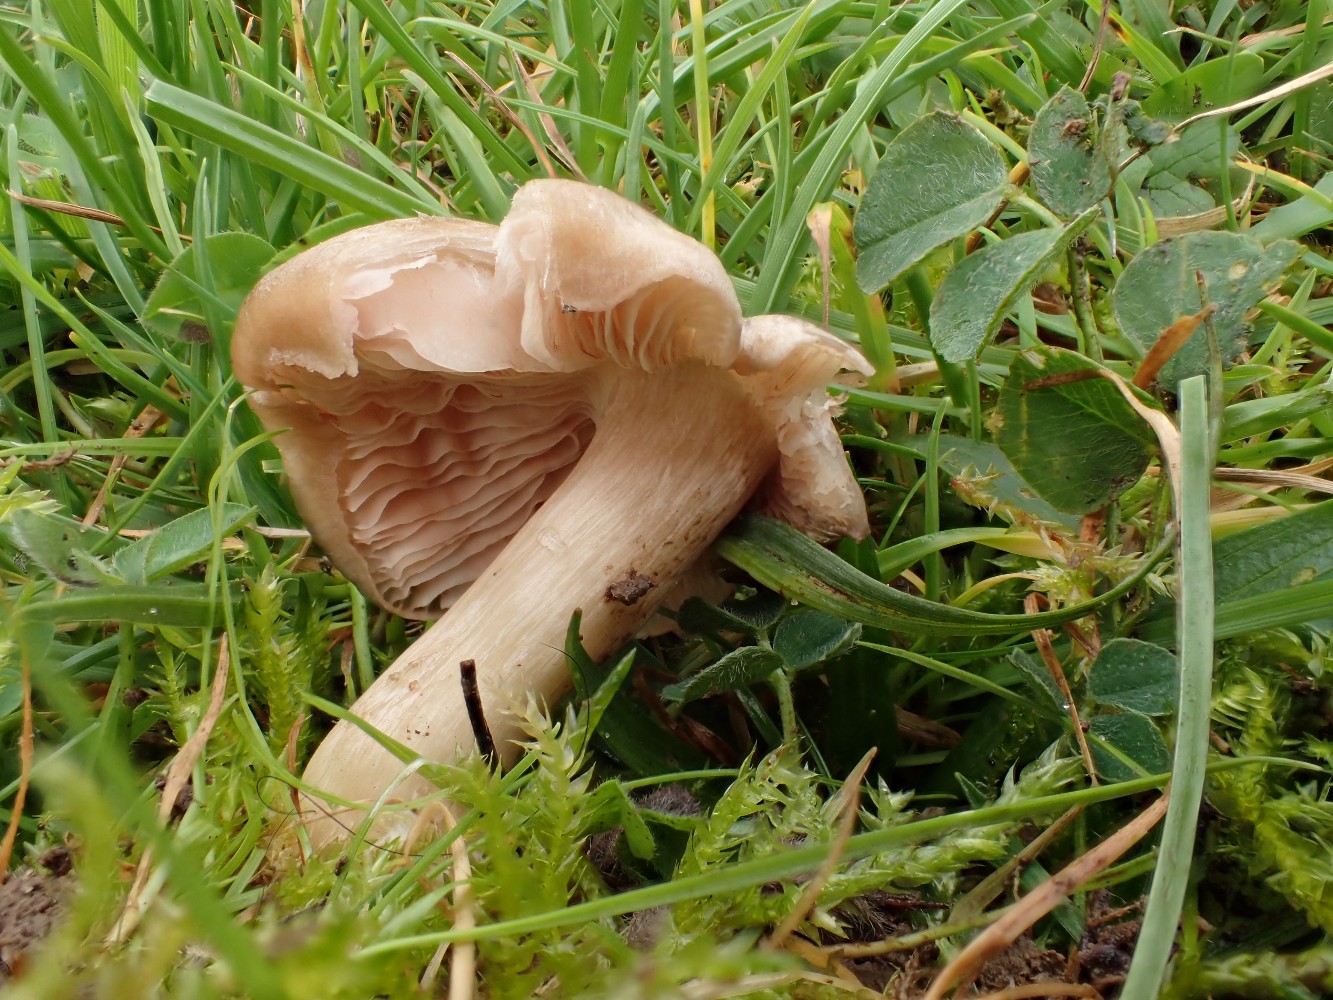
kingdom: Fungi
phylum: Basidiomycota
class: Agaricomycetes
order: Agaricales
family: Entolomataceae
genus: Entoloma
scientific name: Entoloma prunuloides
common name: mel-rødblad
